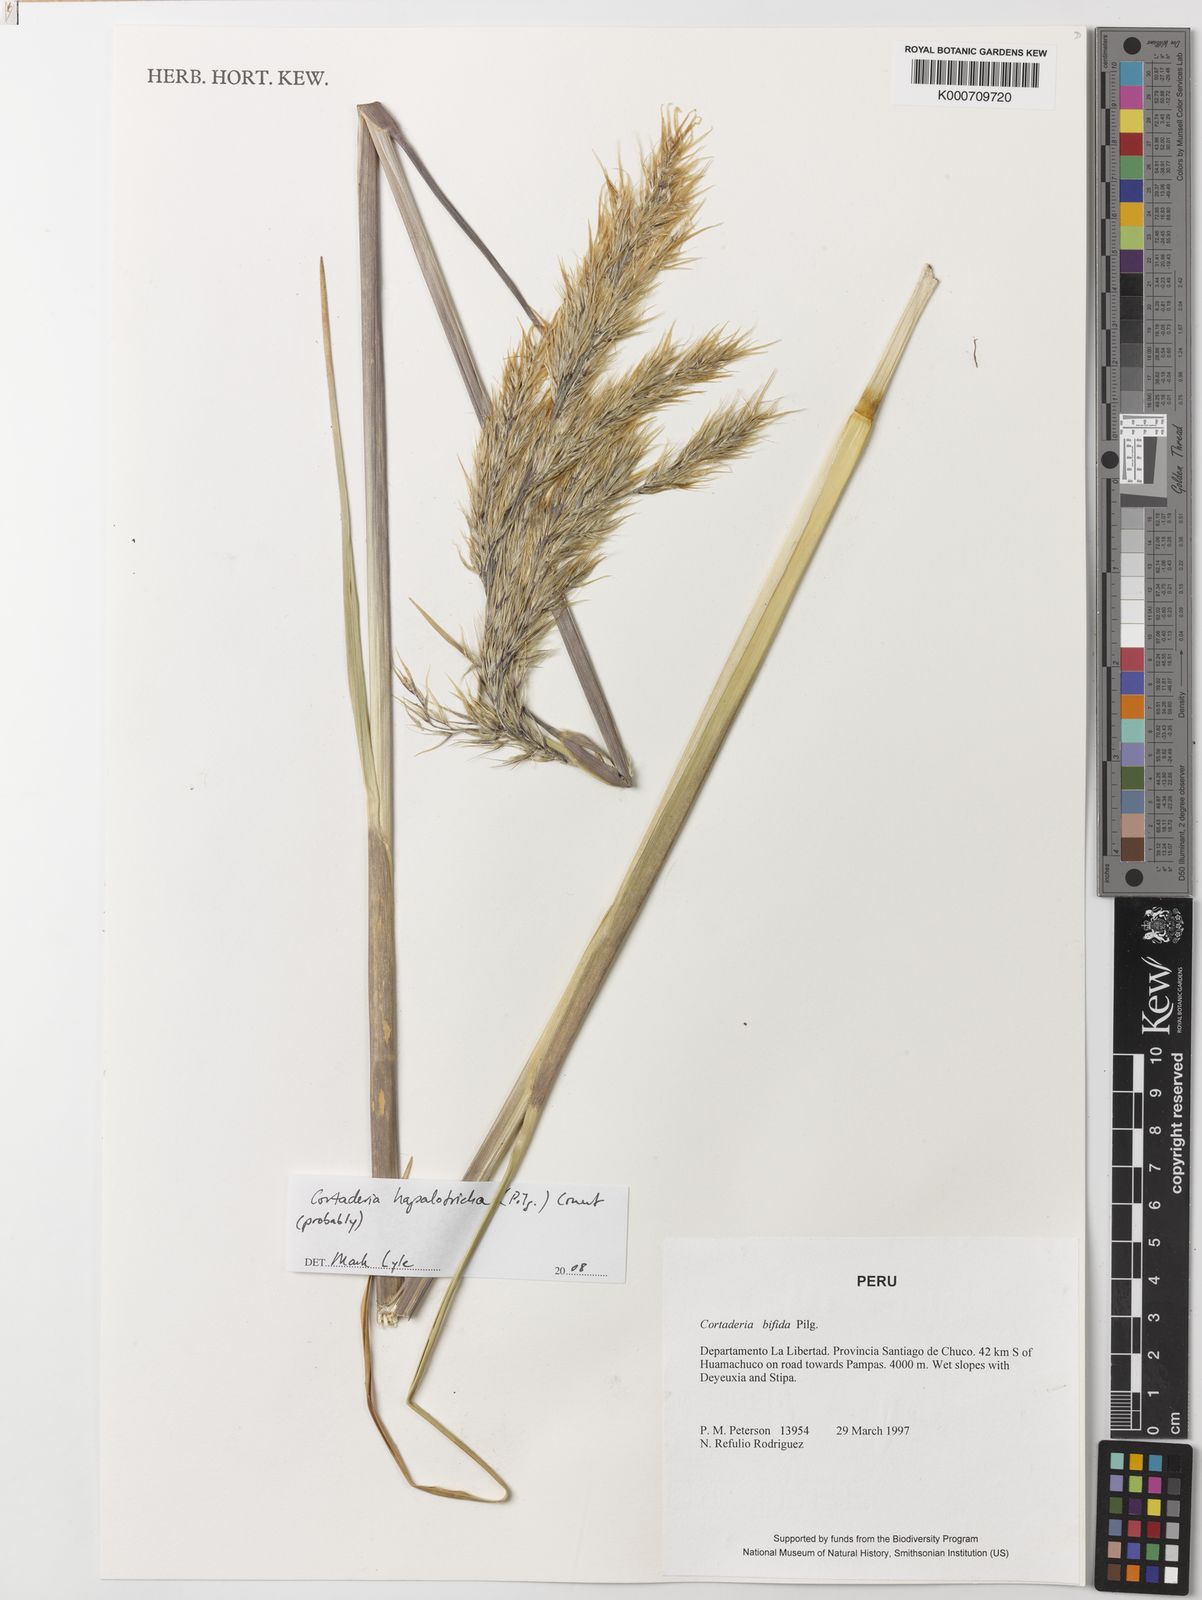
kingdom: Plantae
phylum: Tracheophyta
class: Liliopsida
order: Poales
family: Poaceae
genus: Cortaderia
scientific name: Cortaderia hapalotricha
